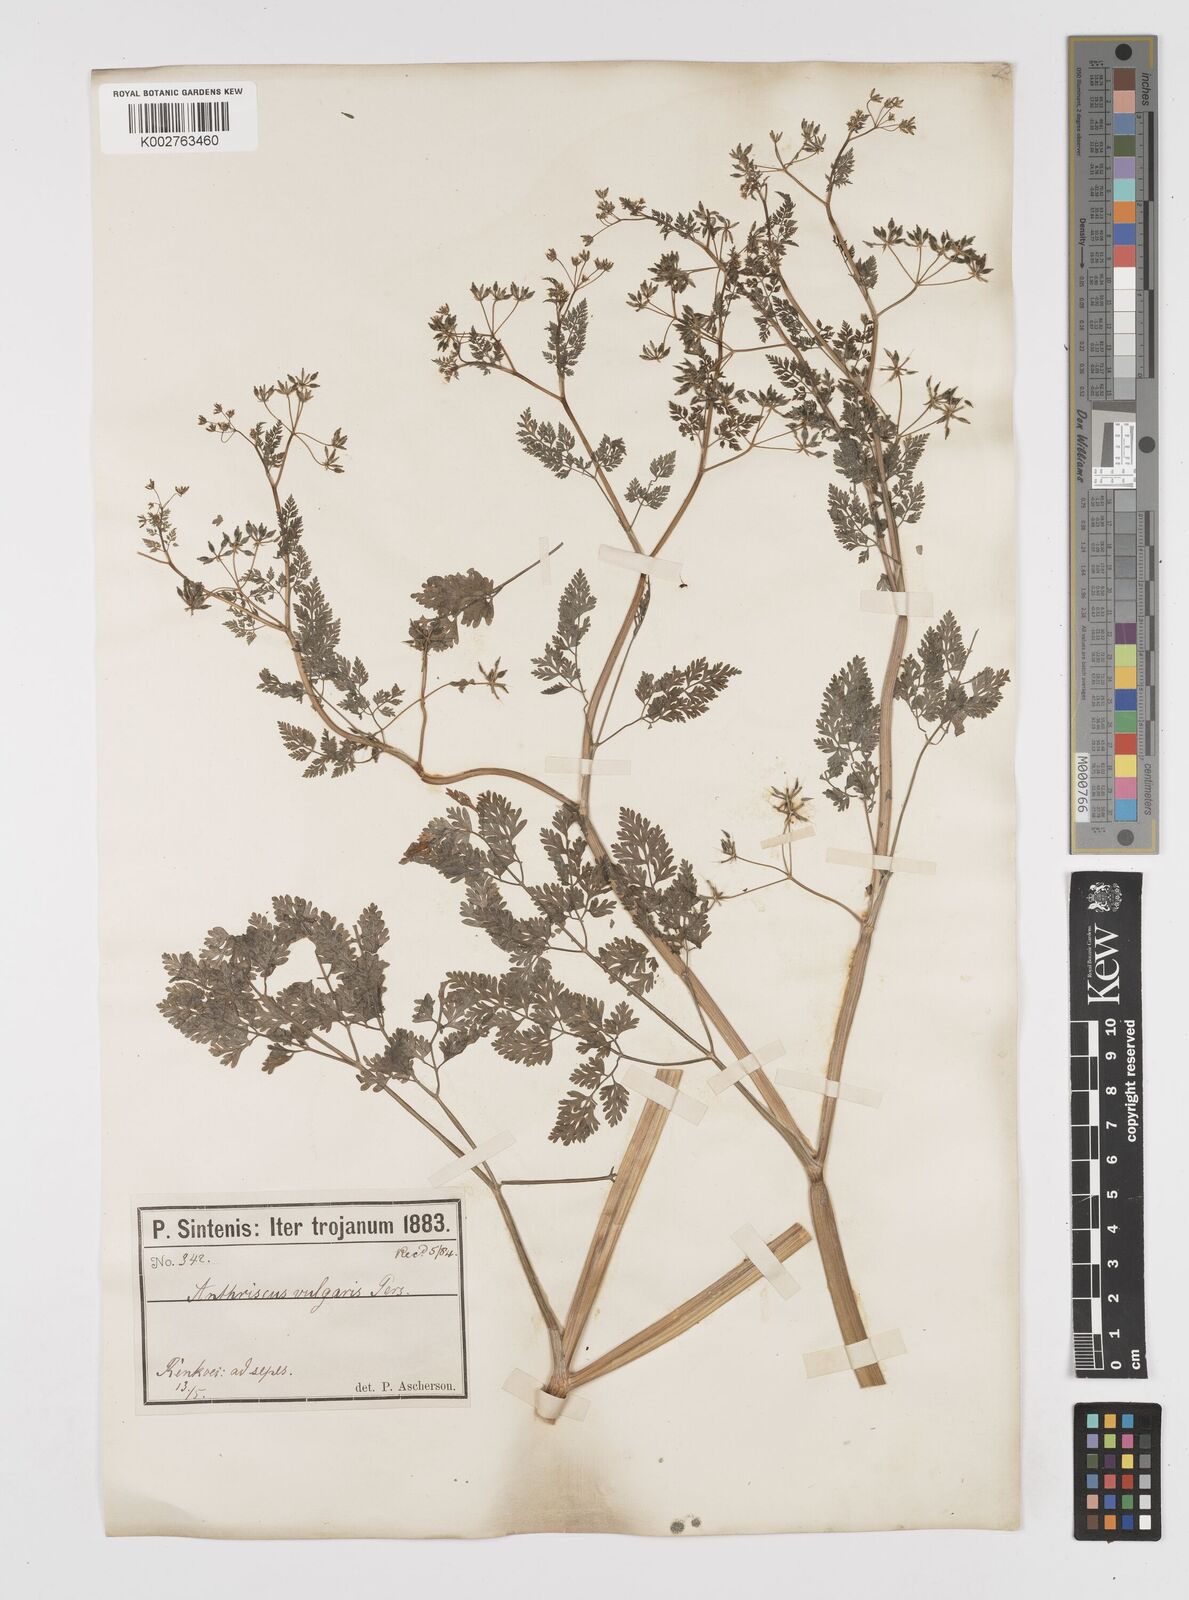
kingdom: Plantae
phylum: Tracheophyta
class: Magnoliopsida
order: Apiales
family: Apiaceae
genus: Anthriscus
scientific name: Anthriscus caucalis
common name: Bur chervil
